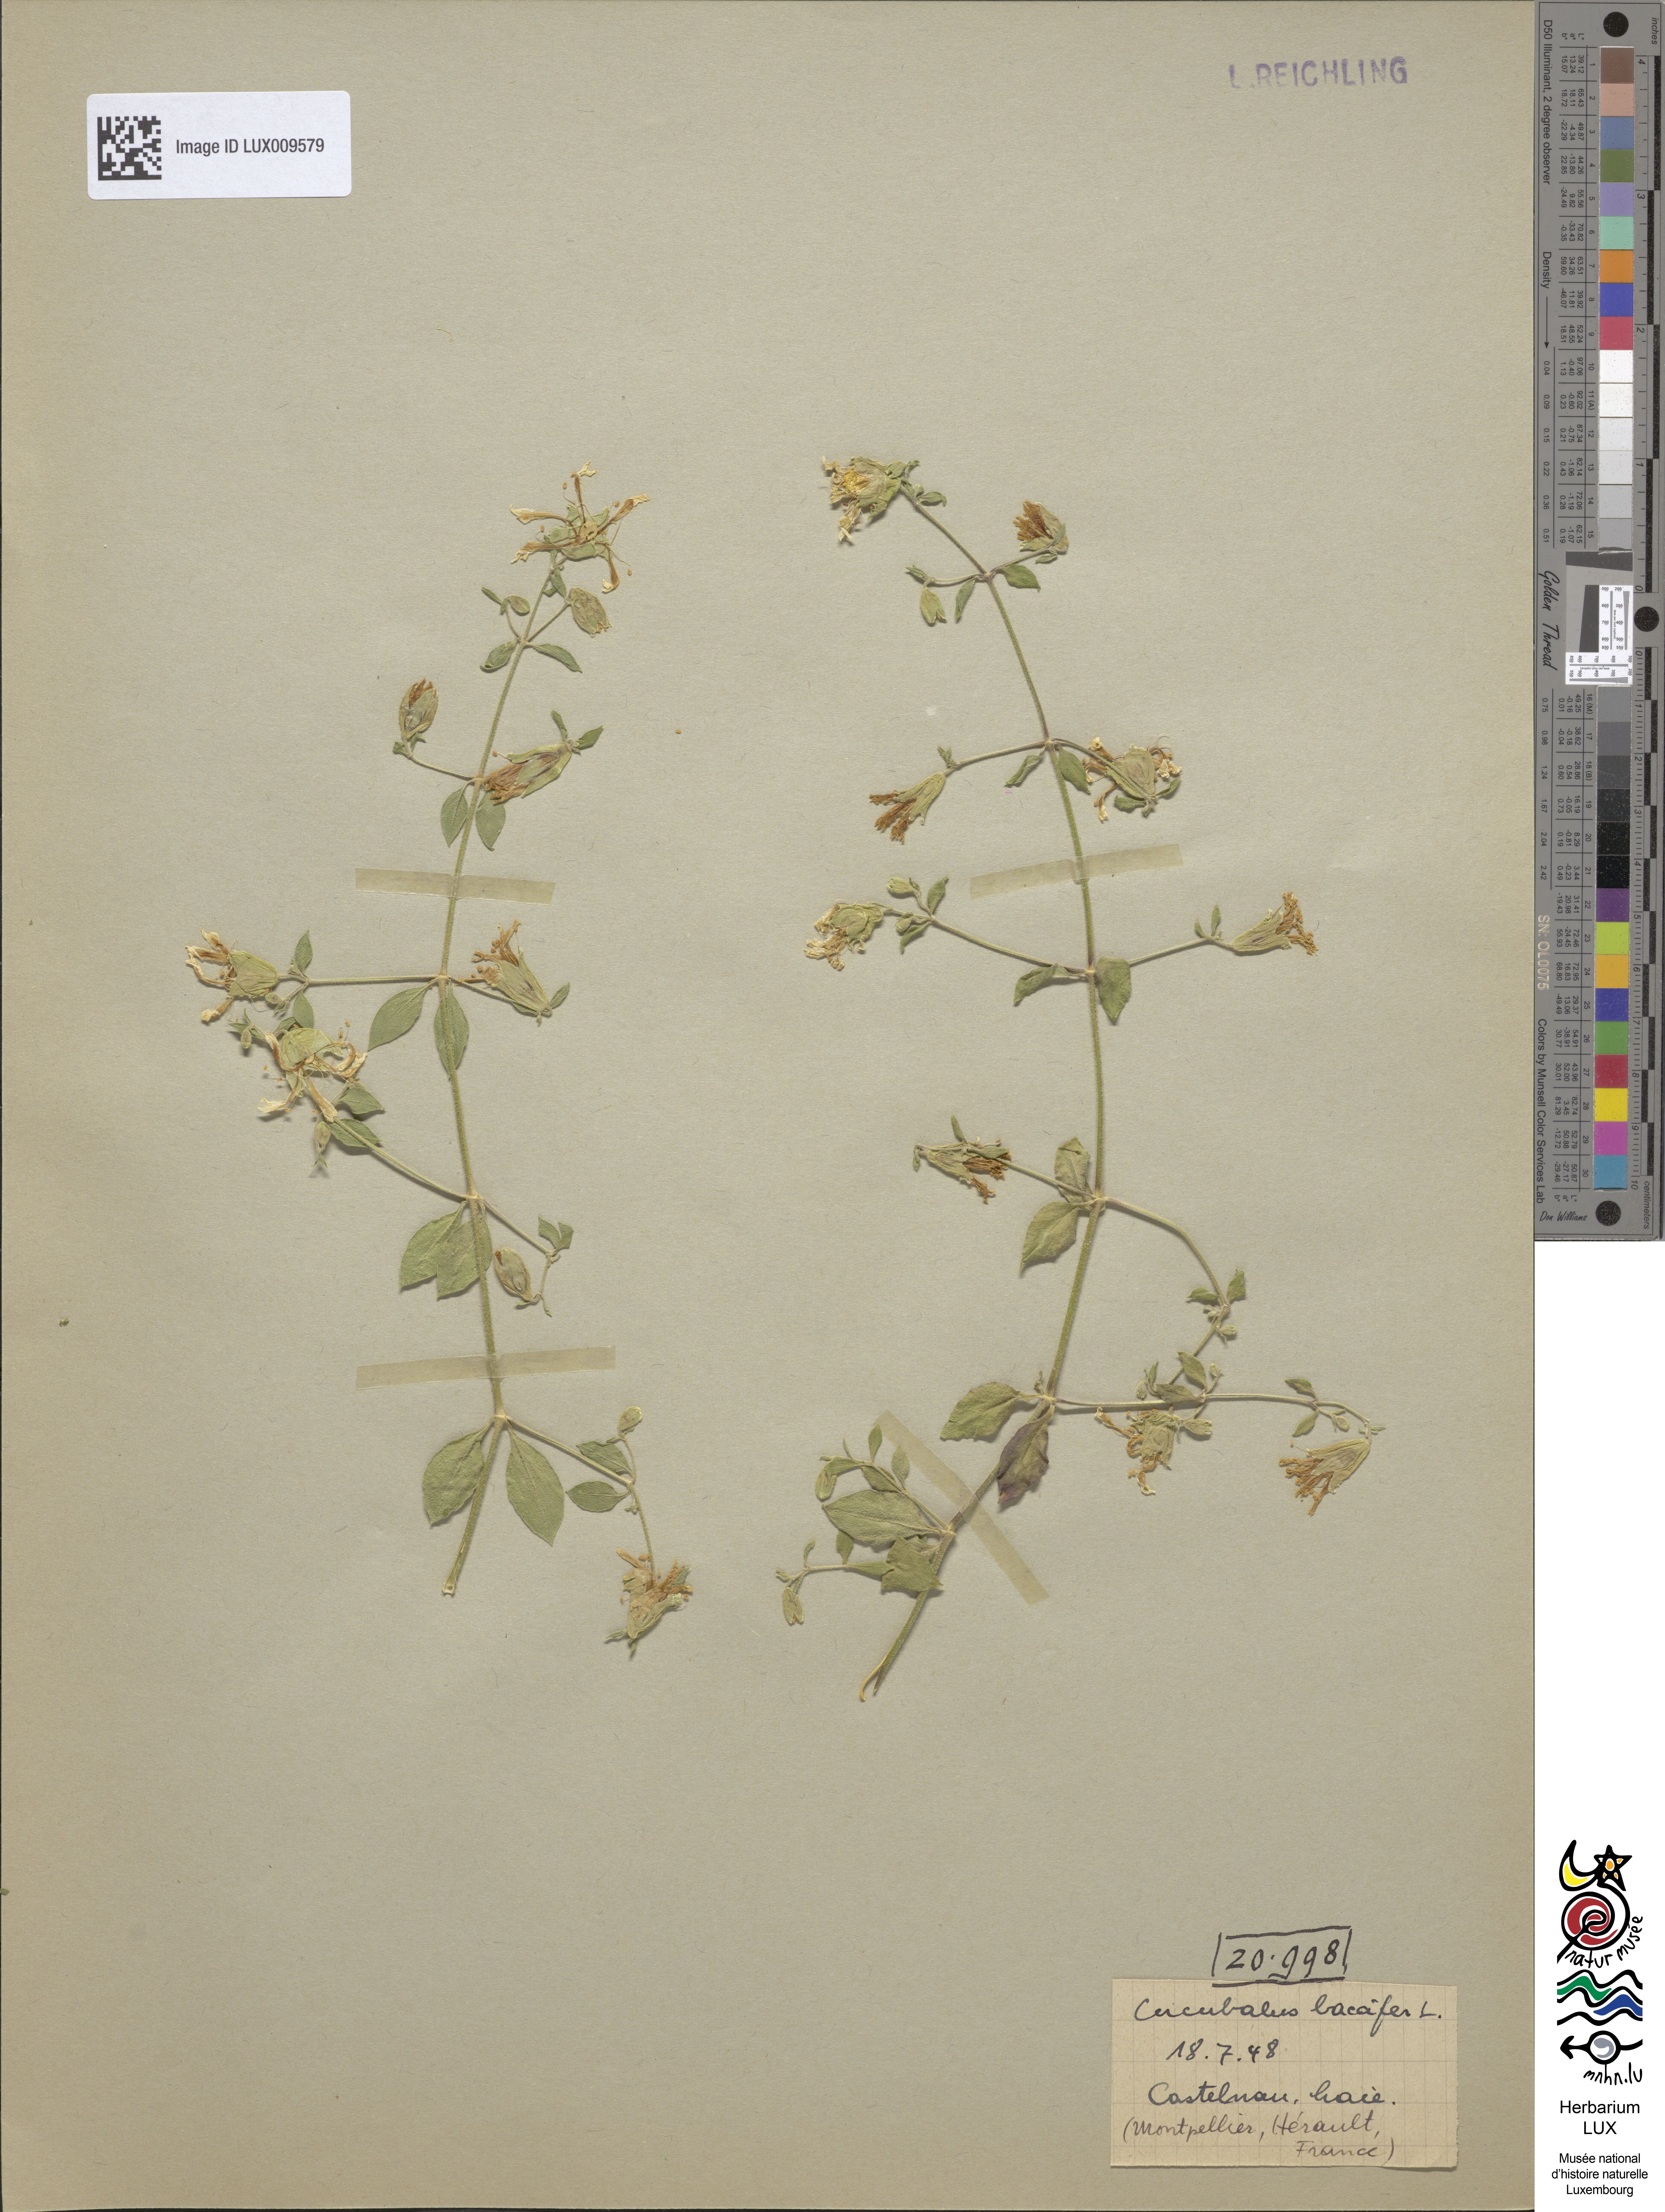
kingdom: Plantae
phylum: Tracheophyta
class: Magnoliopsida
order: Caryophyllales
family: Caryophyllaceae
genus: Silene
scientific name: Silene baccifera
